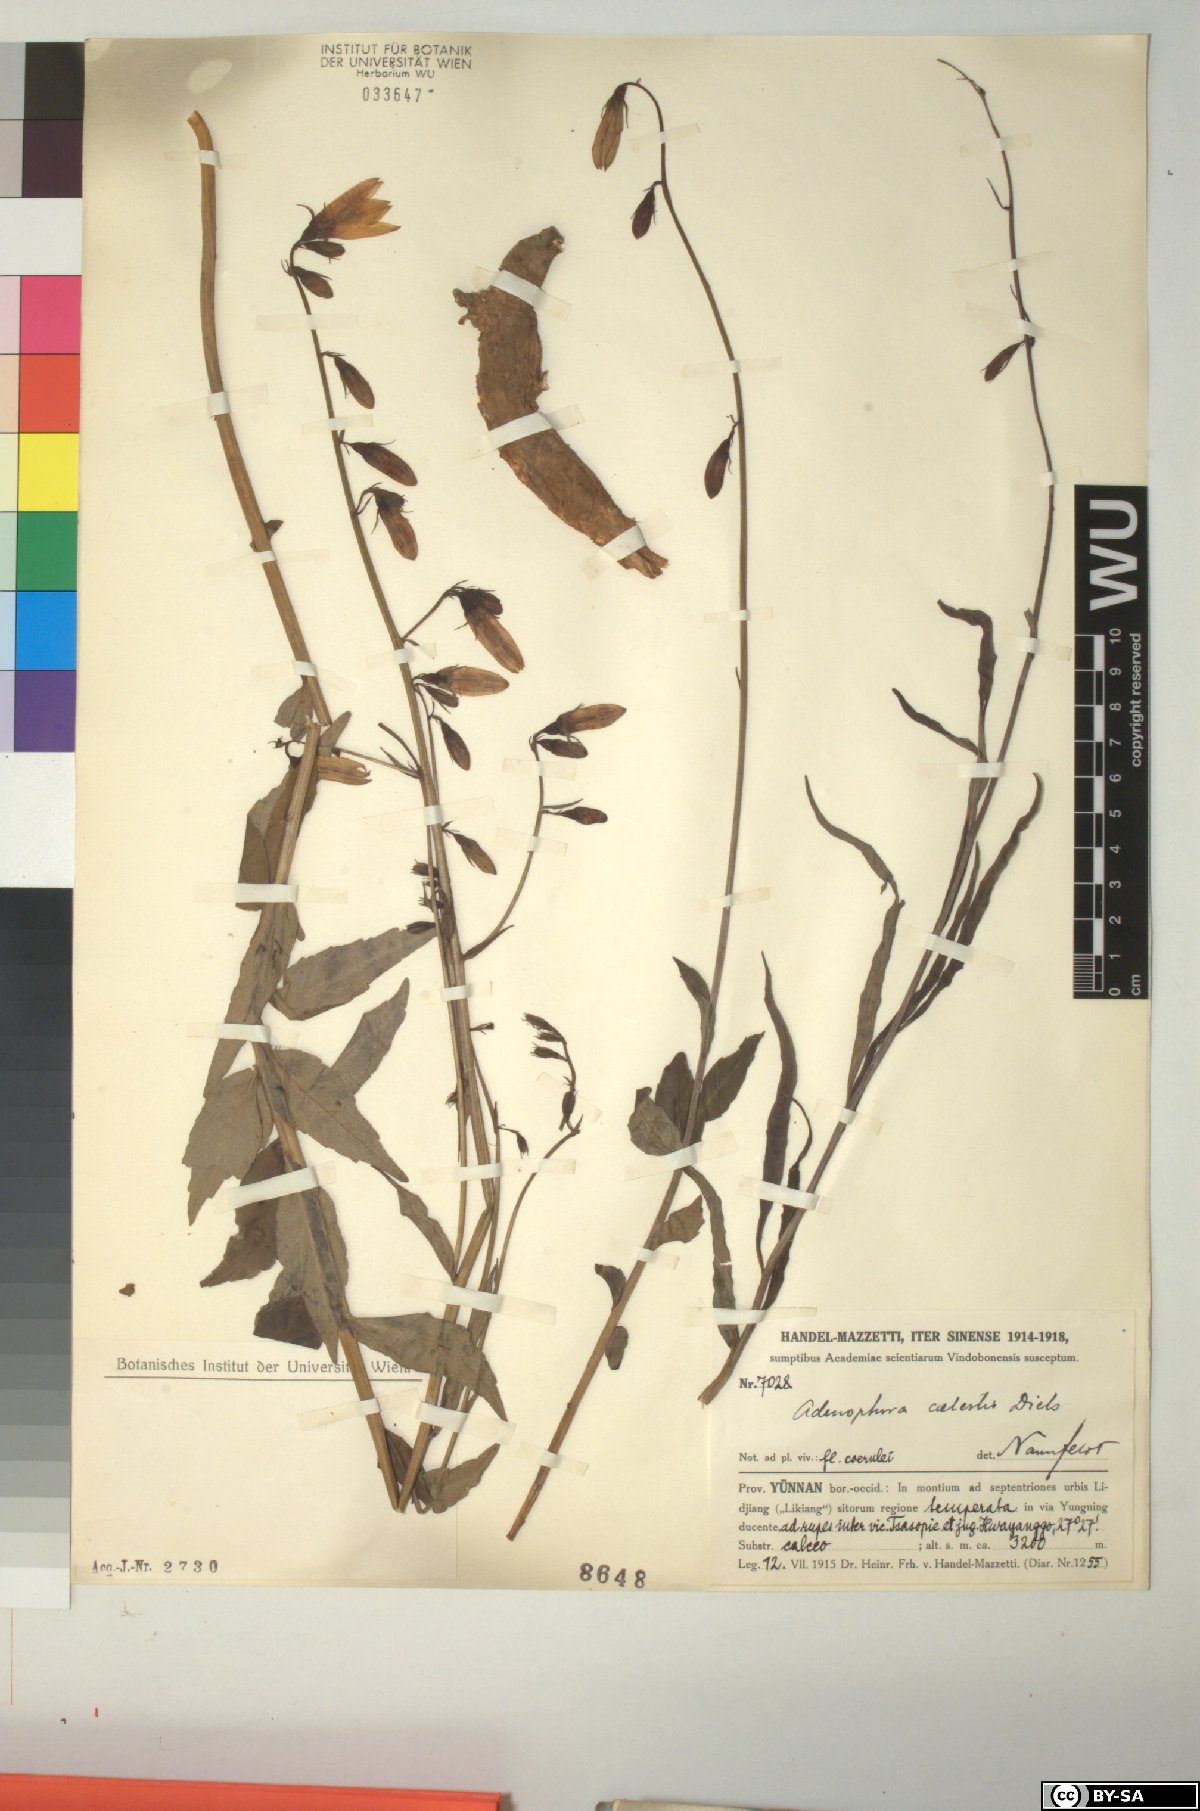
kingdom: Plantae
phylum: Tracheophyta
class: Magnoliopsida
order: Asterales
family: Campanulaceae
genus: Adenophora
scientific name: Adenophora coelestis
